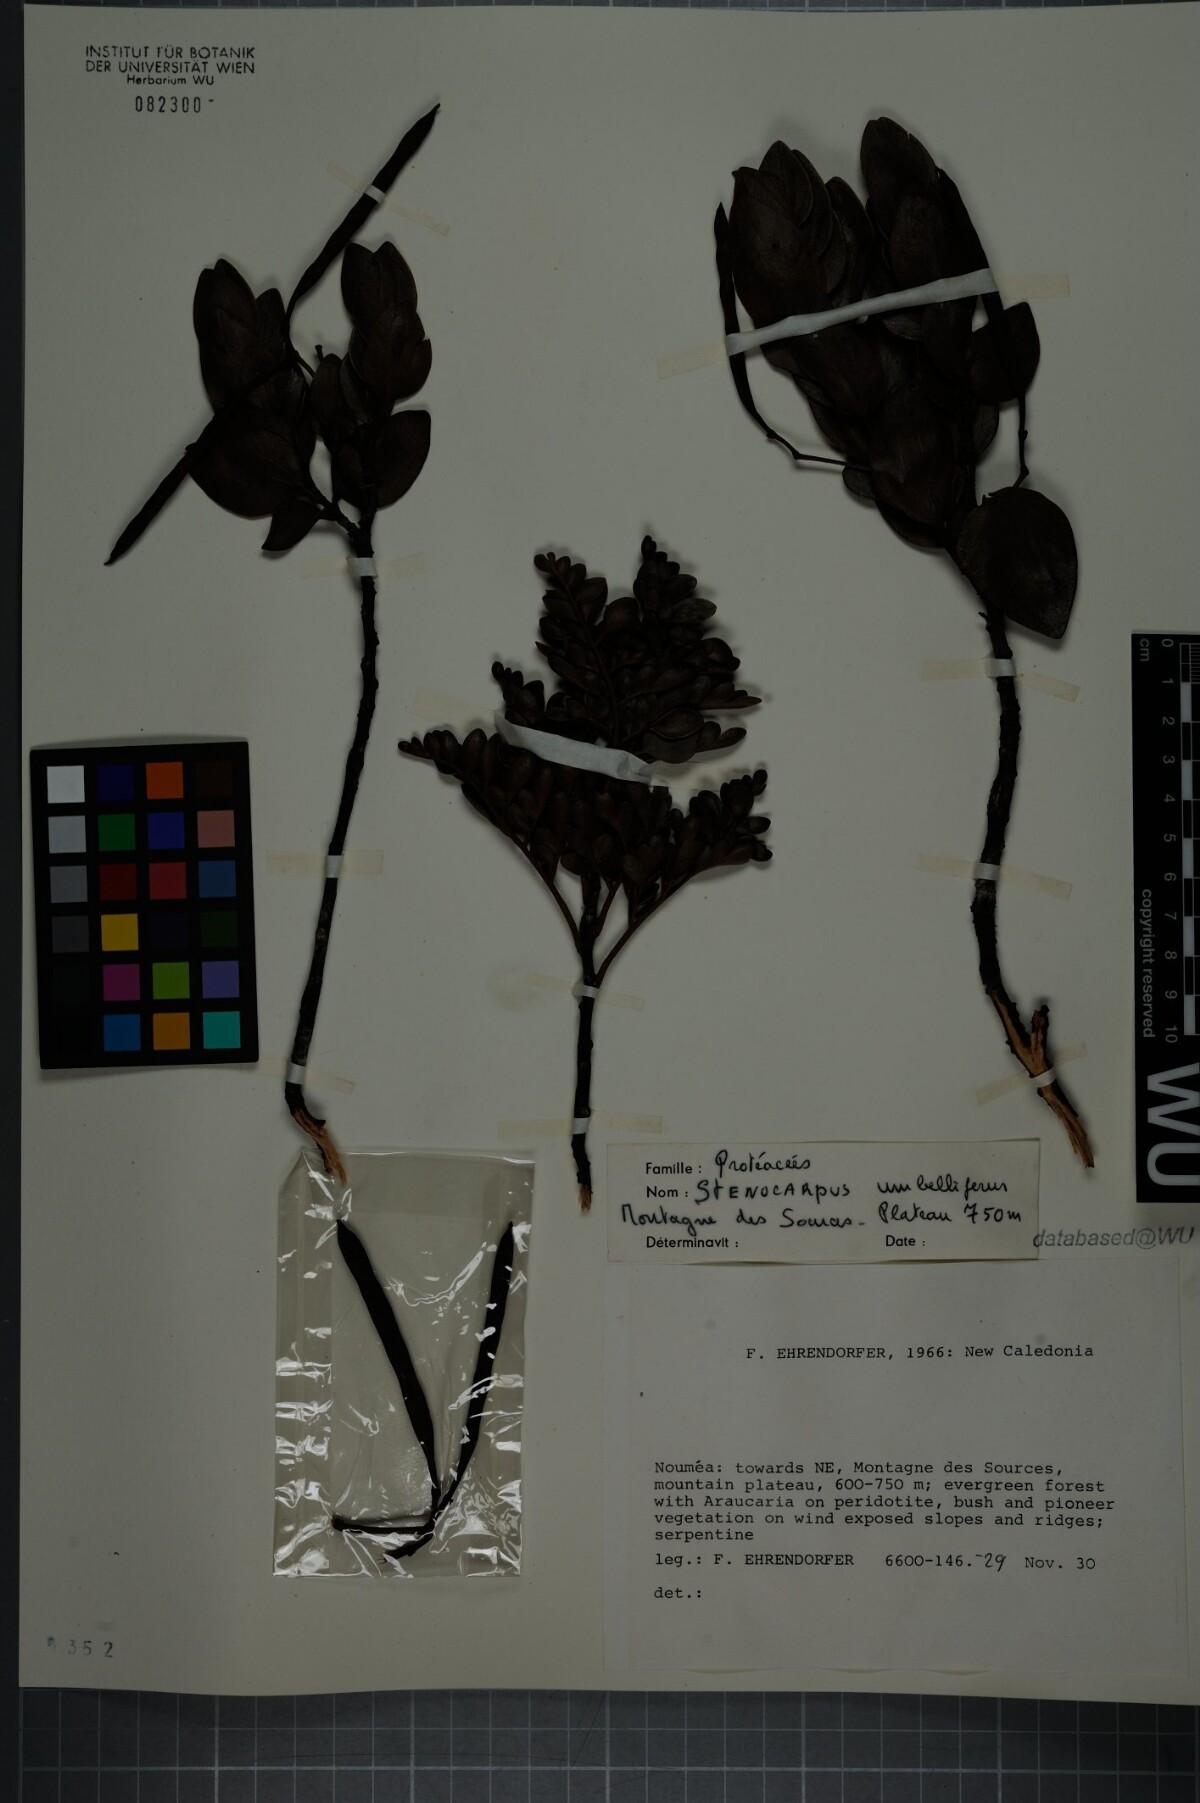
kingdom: Plantae
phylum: Tracheophyta
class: Magnoliopsida
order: Proteales
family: Proteaceae
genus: Stenocarpus
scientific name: Stenocarpus umbellifer
